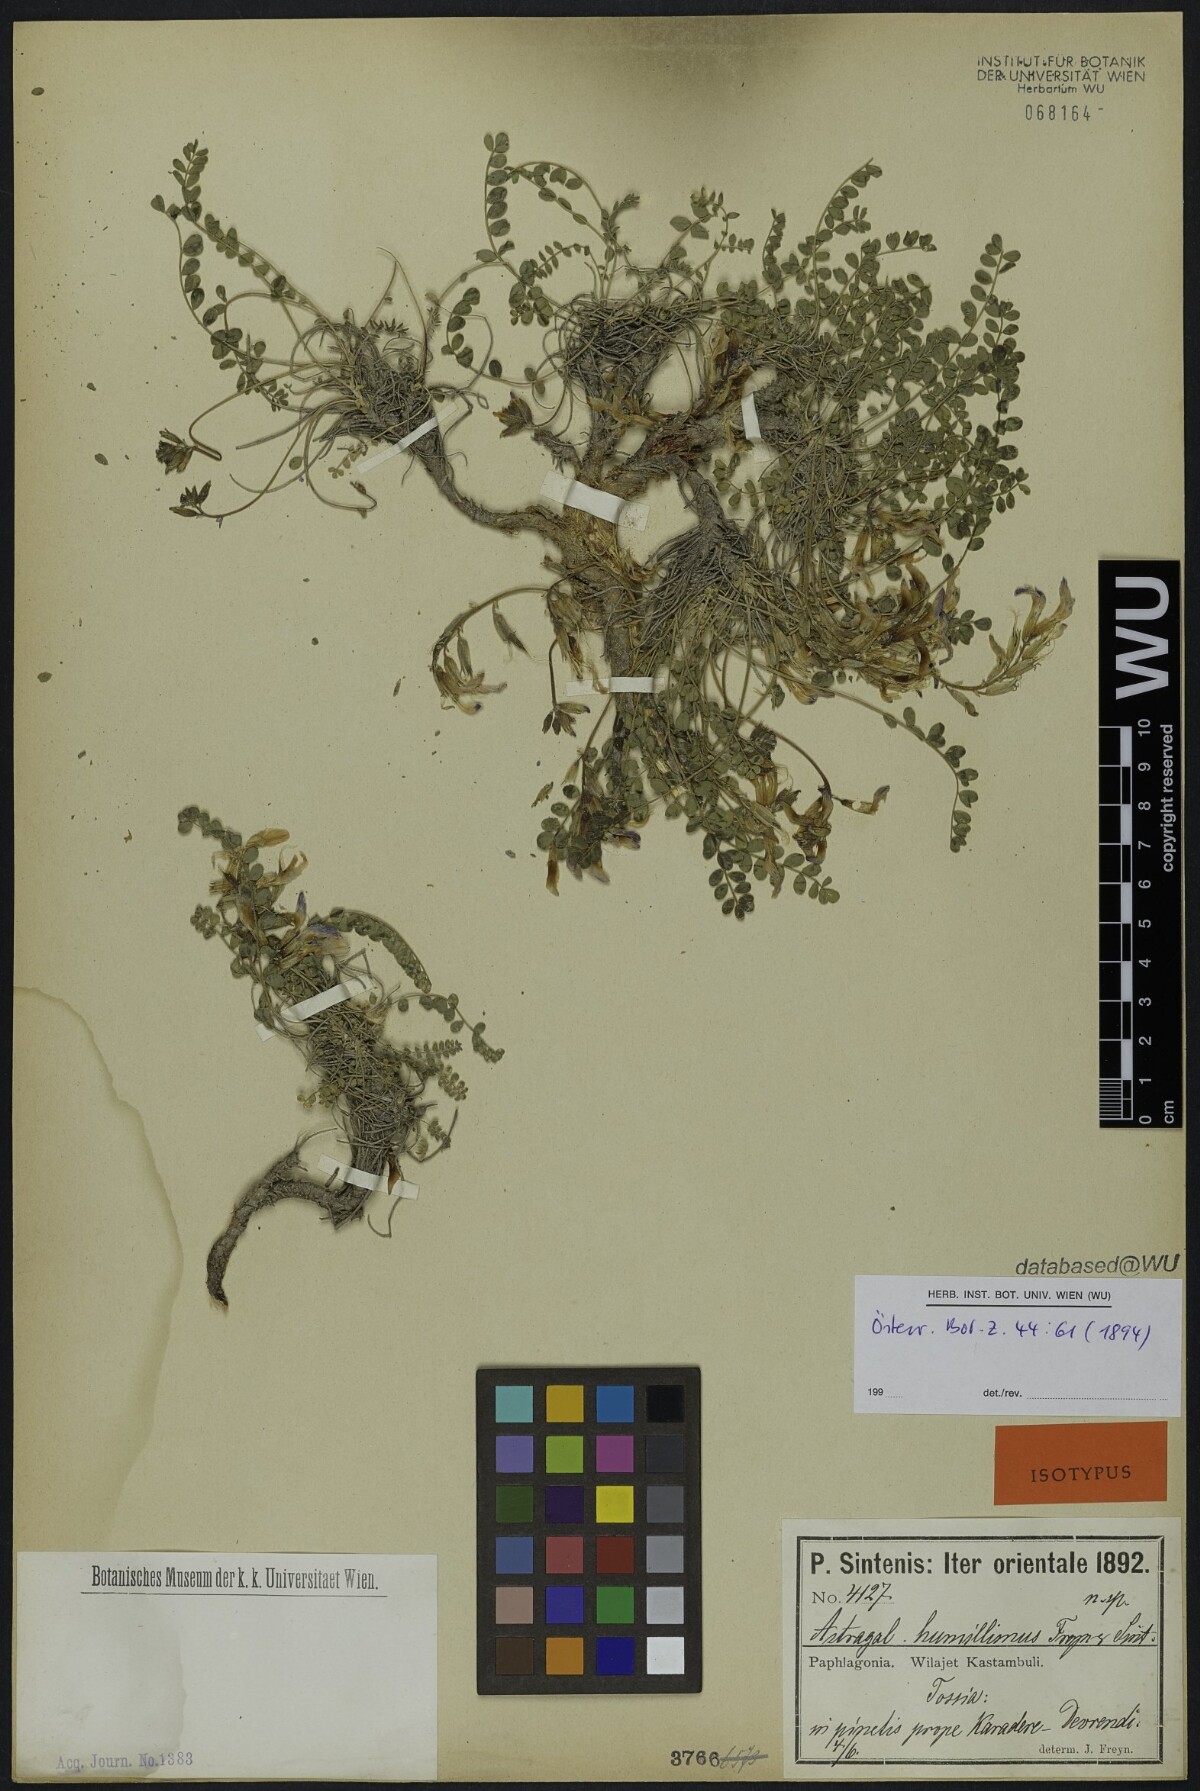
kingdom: Plantae
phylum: Tracheophyta
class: Magnoliopsida
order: Fabales
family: Fabaceae
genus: Astragalus
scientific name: Astragalus prosgaeus
